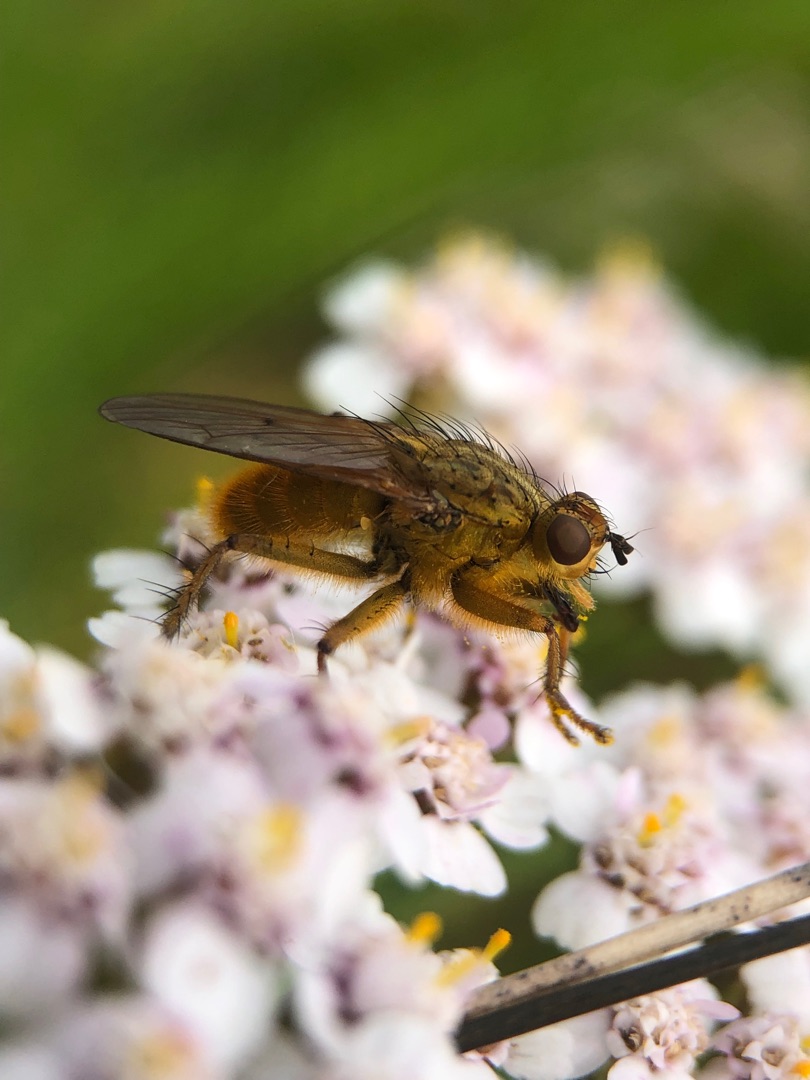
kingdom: Animalia
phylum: Arthropoda
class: Insecta
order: Diptera
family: Scathophagidae
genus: Scathophaga
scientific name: Scathophaga stercoraria
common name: Almindelig gødningsflue
